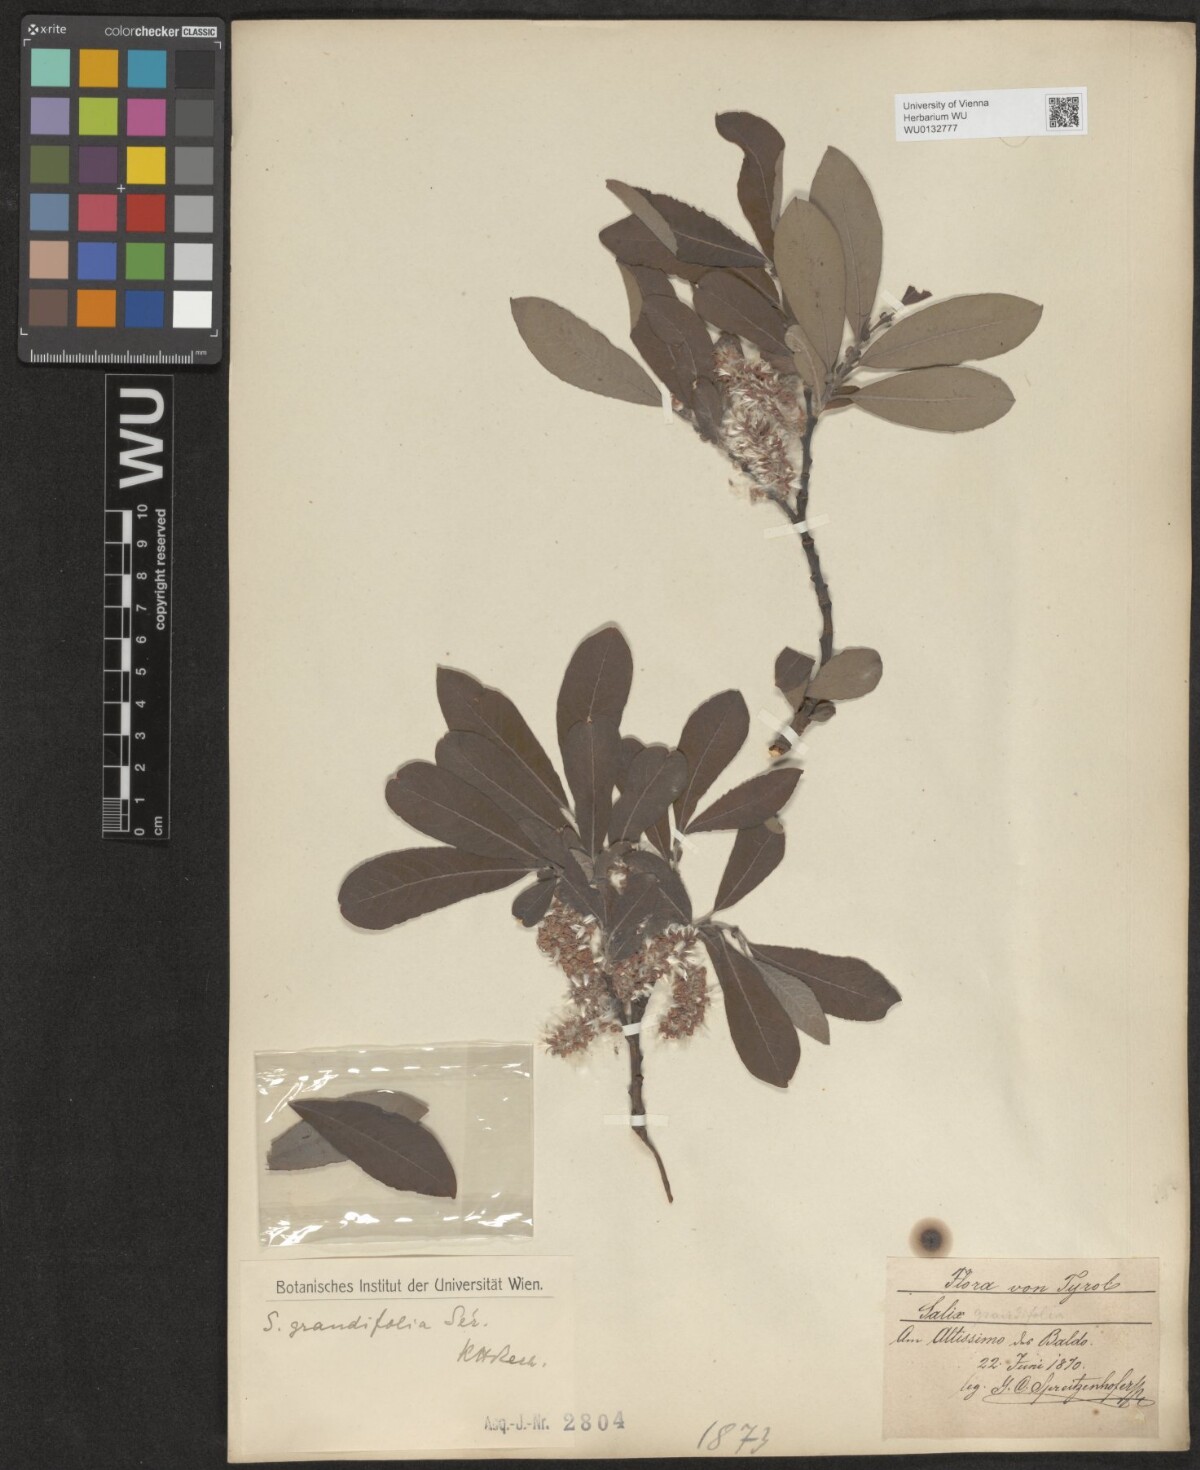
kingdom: Plantae
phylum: Tracheophyta
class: Magnoliopsida
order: Malpighiales
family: Salicaceae
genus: Salix
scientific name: Salix appendiculata
